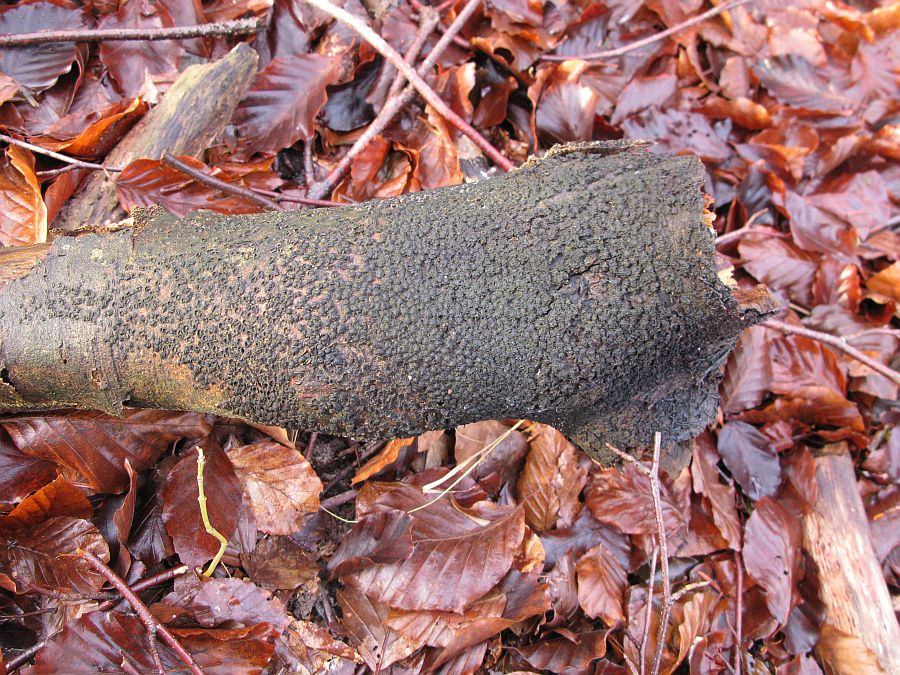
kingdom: Fungi
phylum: Ascomycota
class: Sordariomycetes
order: Xylariales
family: Melogrammataceae
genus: Melogramma
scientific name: Melogramma spiniferum
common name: bøgefod-kulhals
